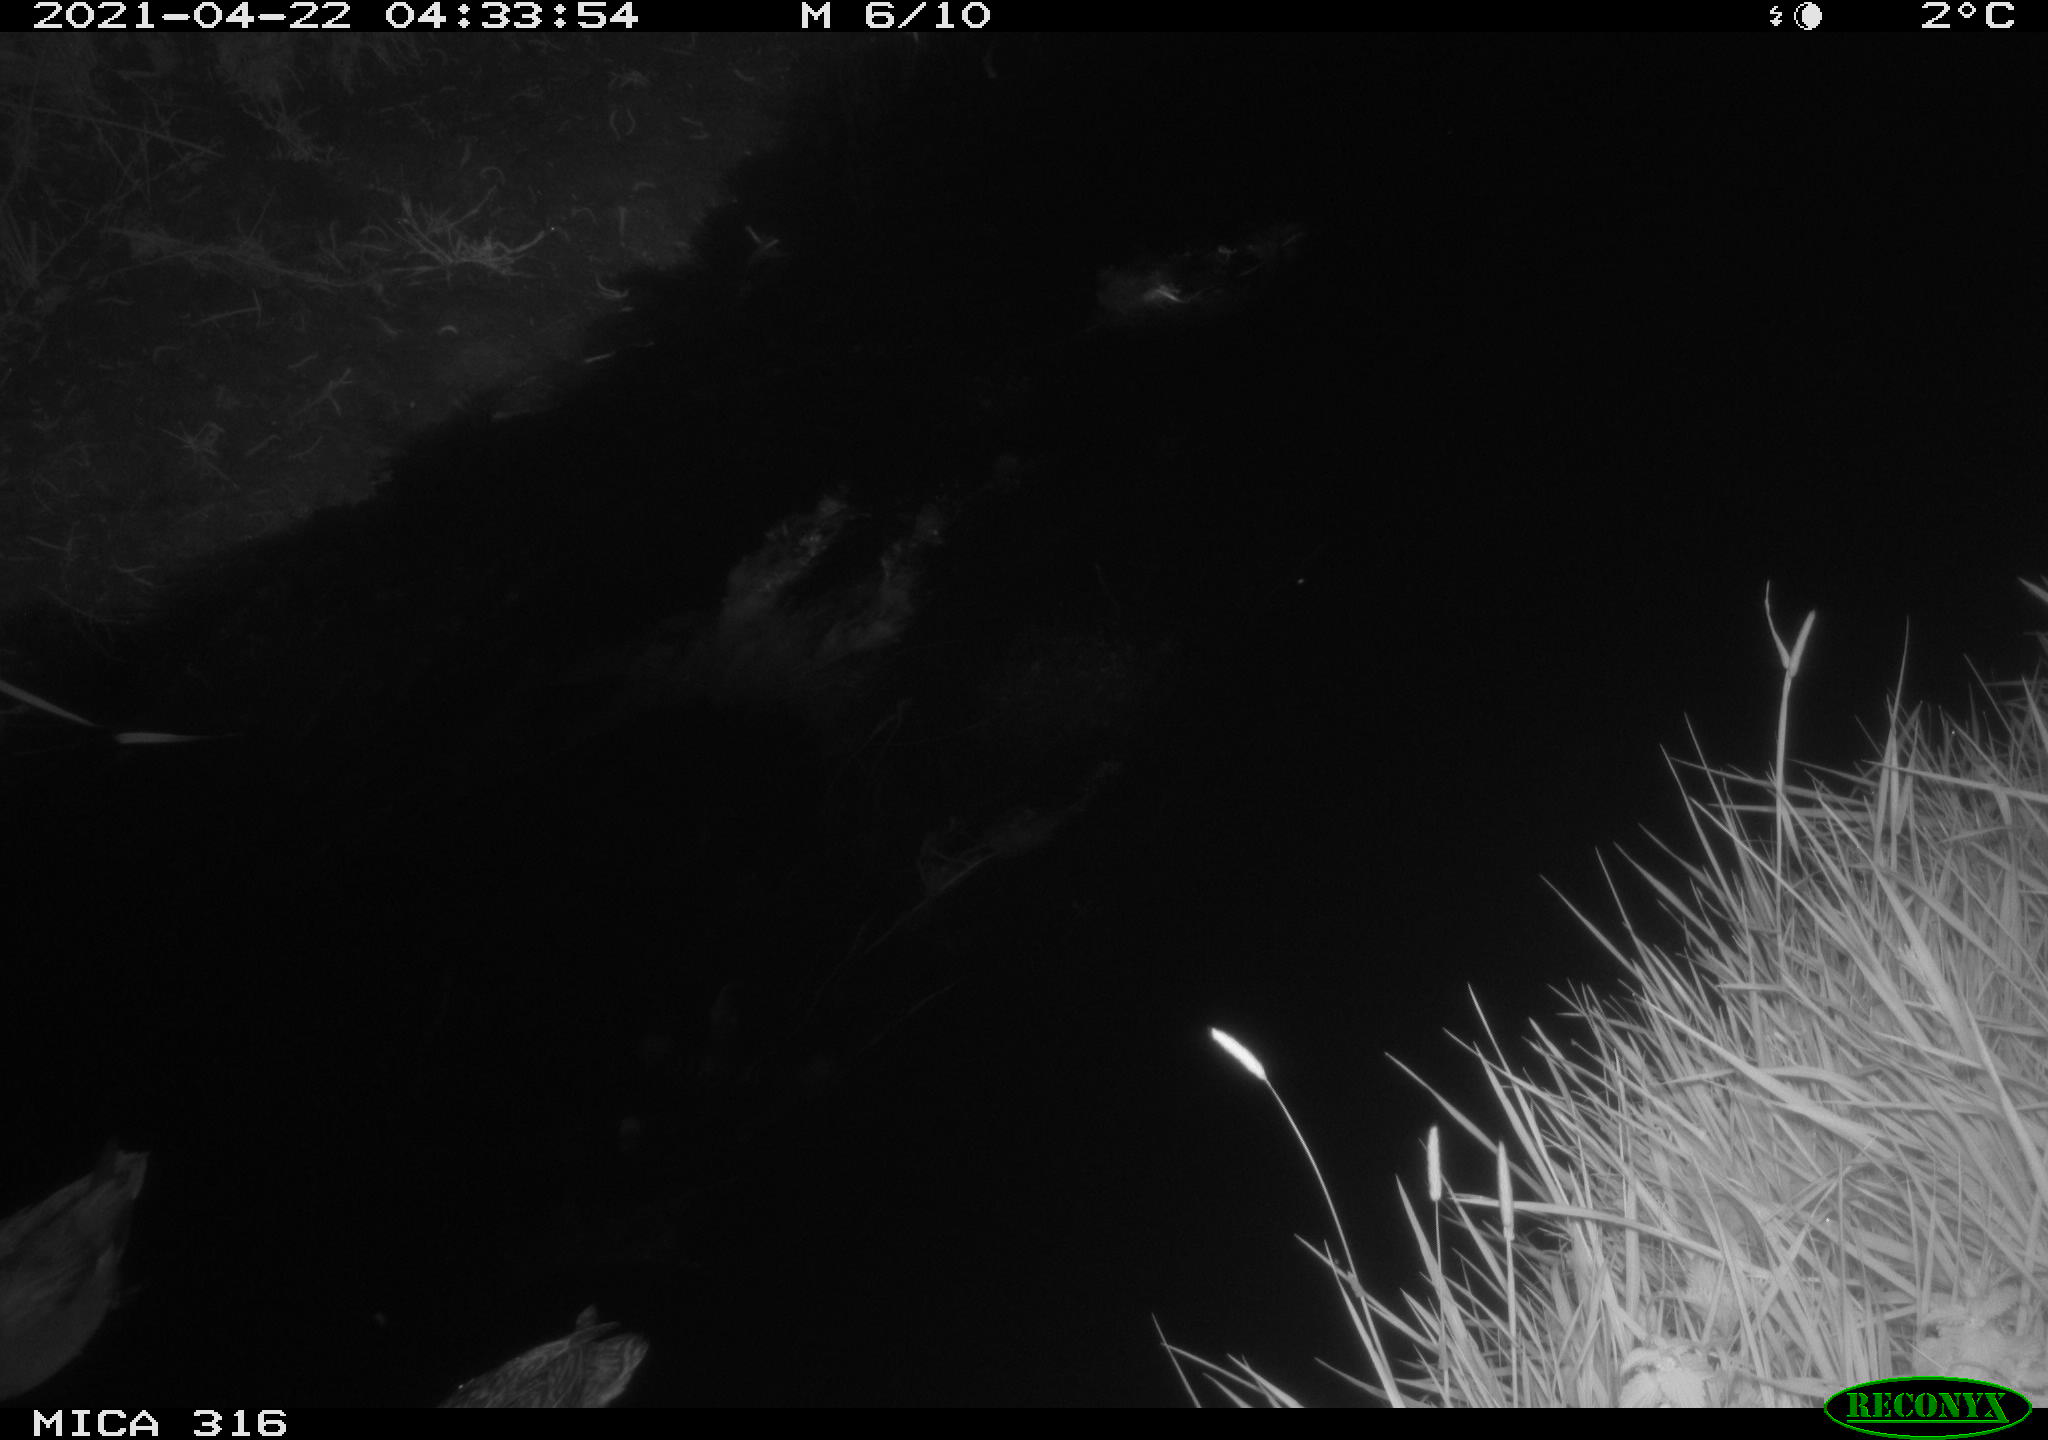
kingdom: Animalia
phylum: Chordata
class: Aves
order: Gruiformes
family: Rallidae
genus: Gallinula
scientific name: Gallinula chloropus
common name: Common moorhen
